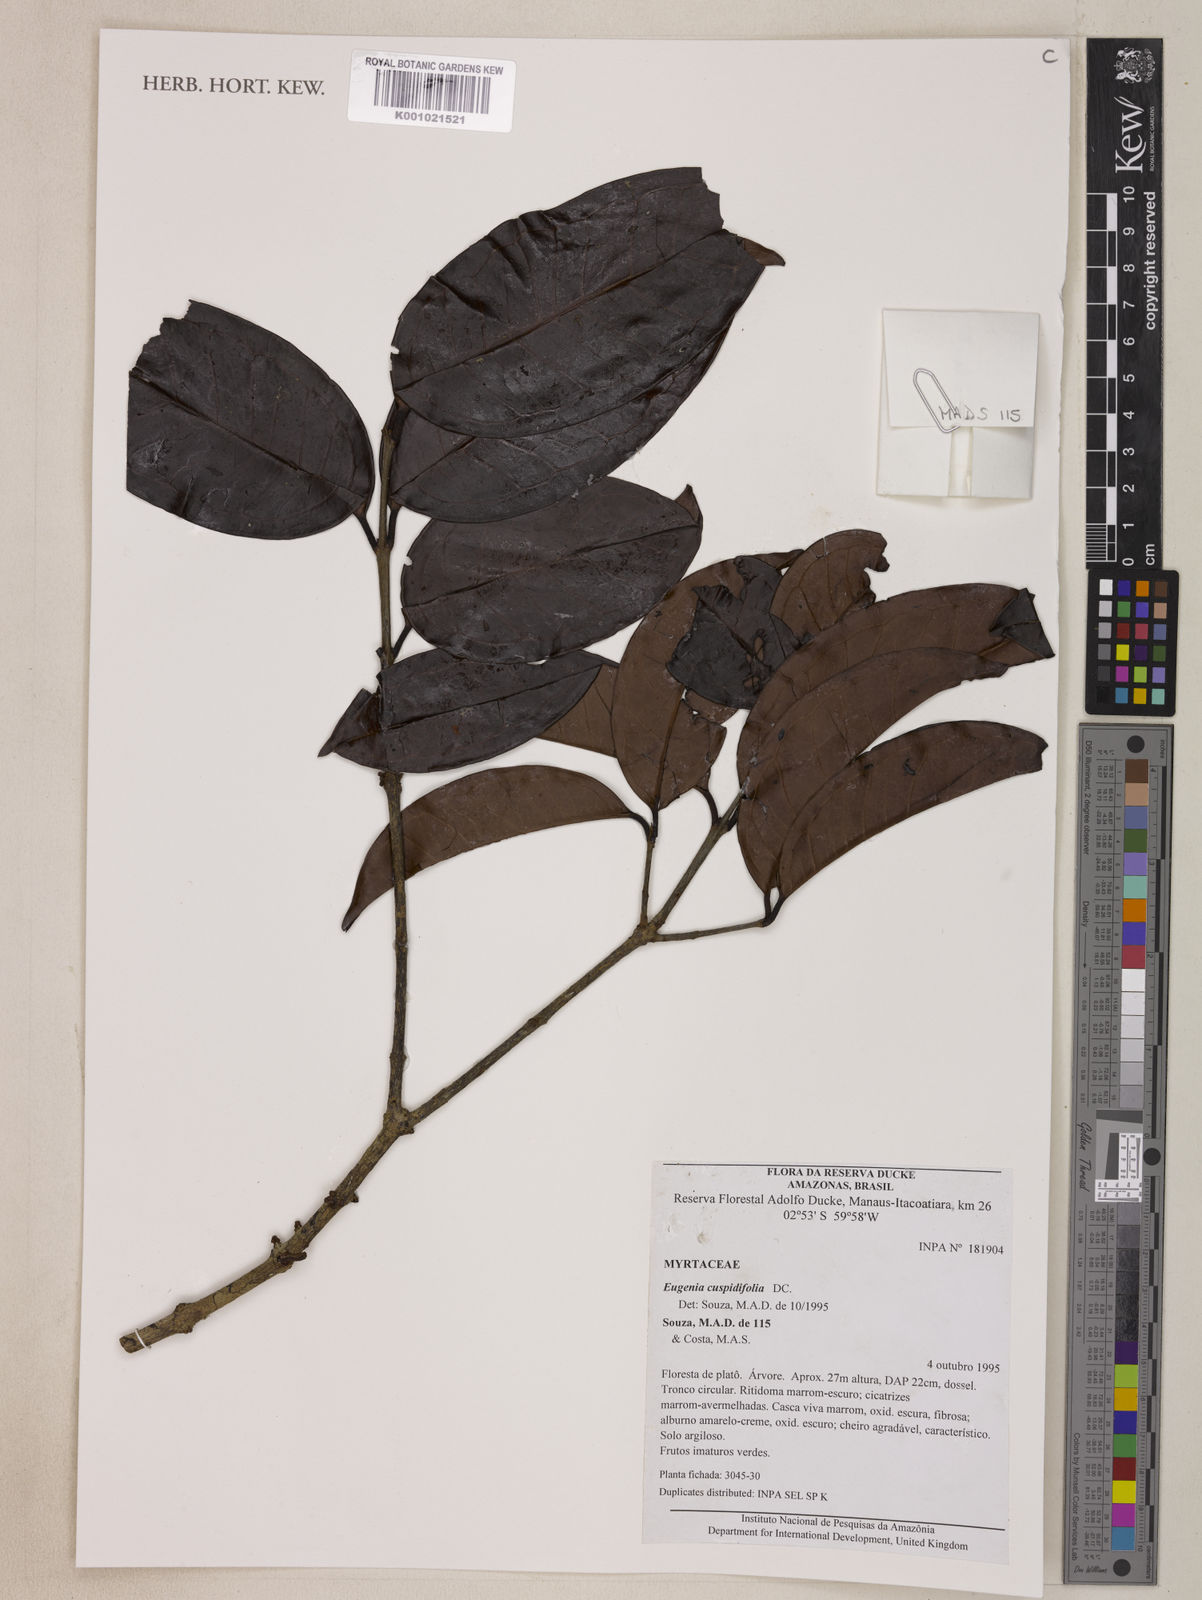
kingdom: Plantae
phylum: Tracheophyta
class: Magnoliopsida
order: Myrtales
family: Myrtaceae
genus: Eugenia
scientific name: Eugenia cuspidifolia
